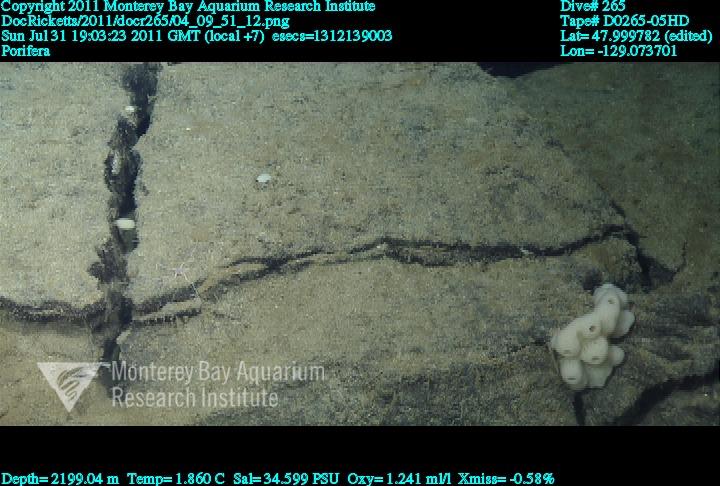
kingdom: Animalia
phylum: Porifera
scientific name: Porifera
